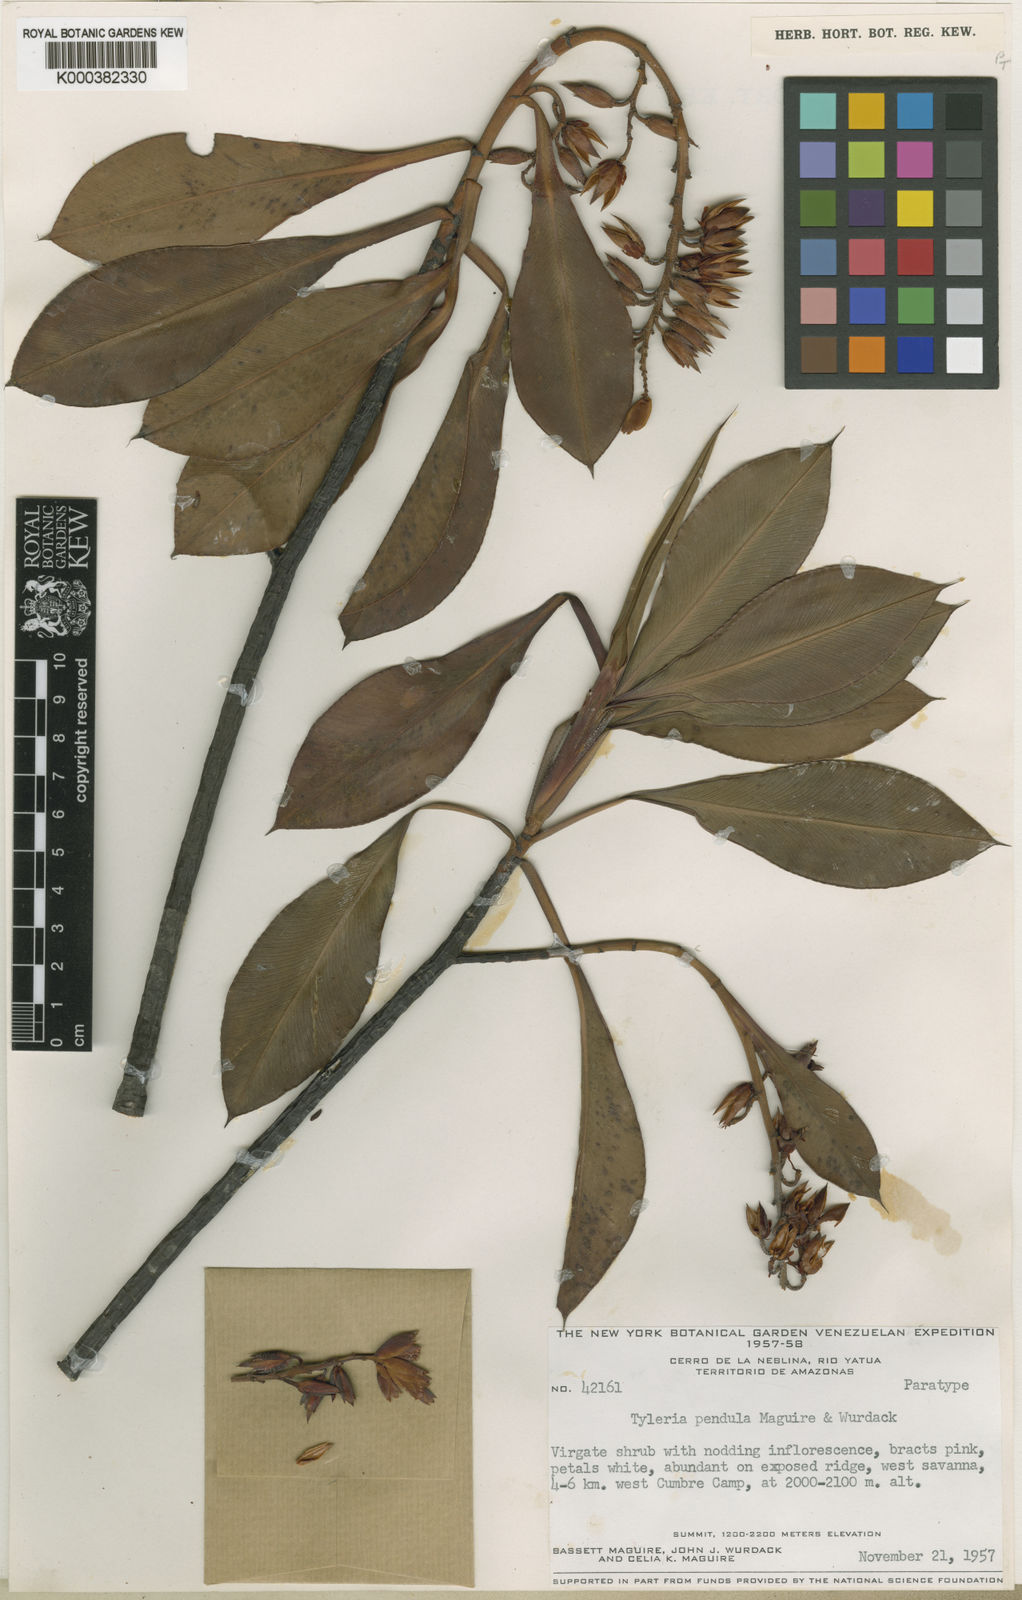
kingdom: Plantae
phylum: Tracheophyta
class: Magnoliopsida
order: Malpighiales
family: Ochnaceae
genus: Tyleria
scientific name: Tyleria pendula
